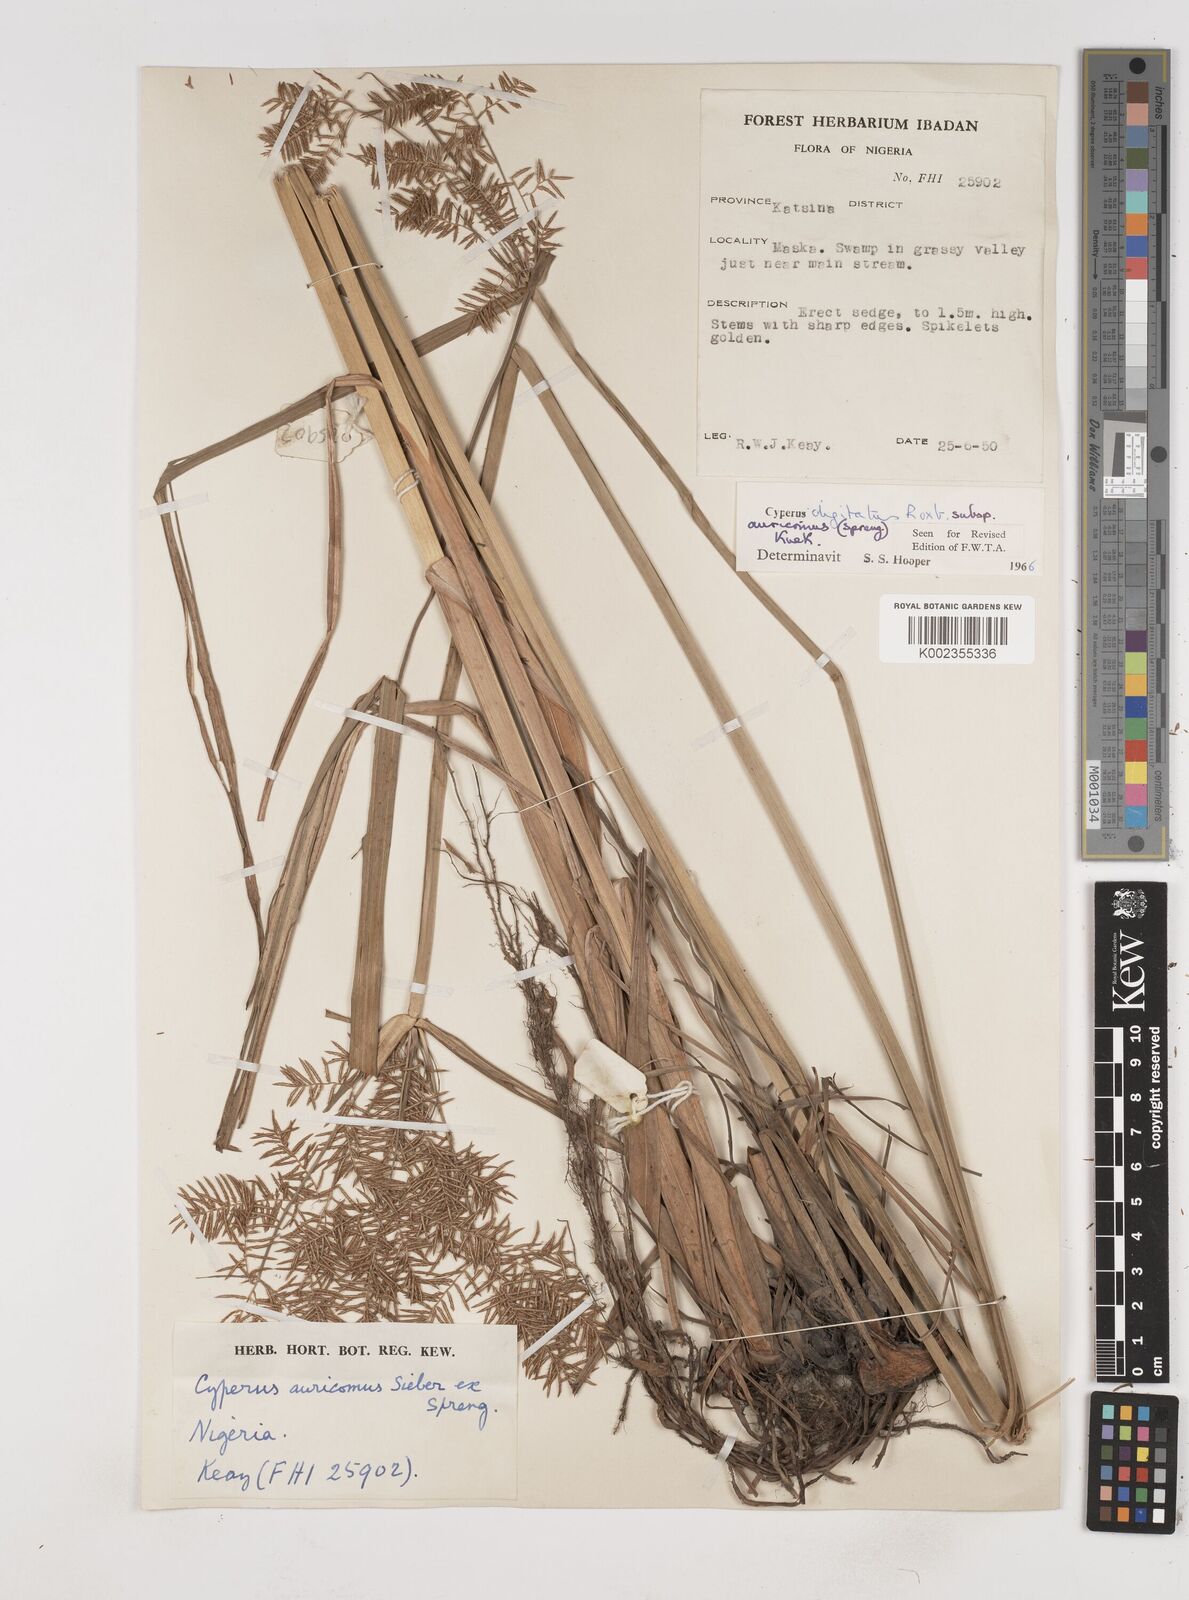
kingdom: Plantae
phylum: Tracheophyta
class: Liliopsida
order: Poales
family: Cyperaceae
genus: Cyperus
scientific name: Cyperus digitatus
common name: Finger flatsedge
